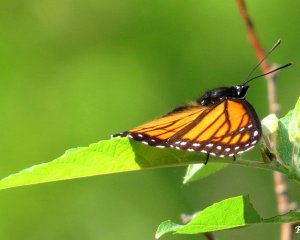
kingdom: Animalia
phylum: Arthropoda
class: Insecta
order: Lepidoptera
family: Nymphalidae
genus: Limenitis
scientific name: Limenitis archippus
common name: Viceroy
